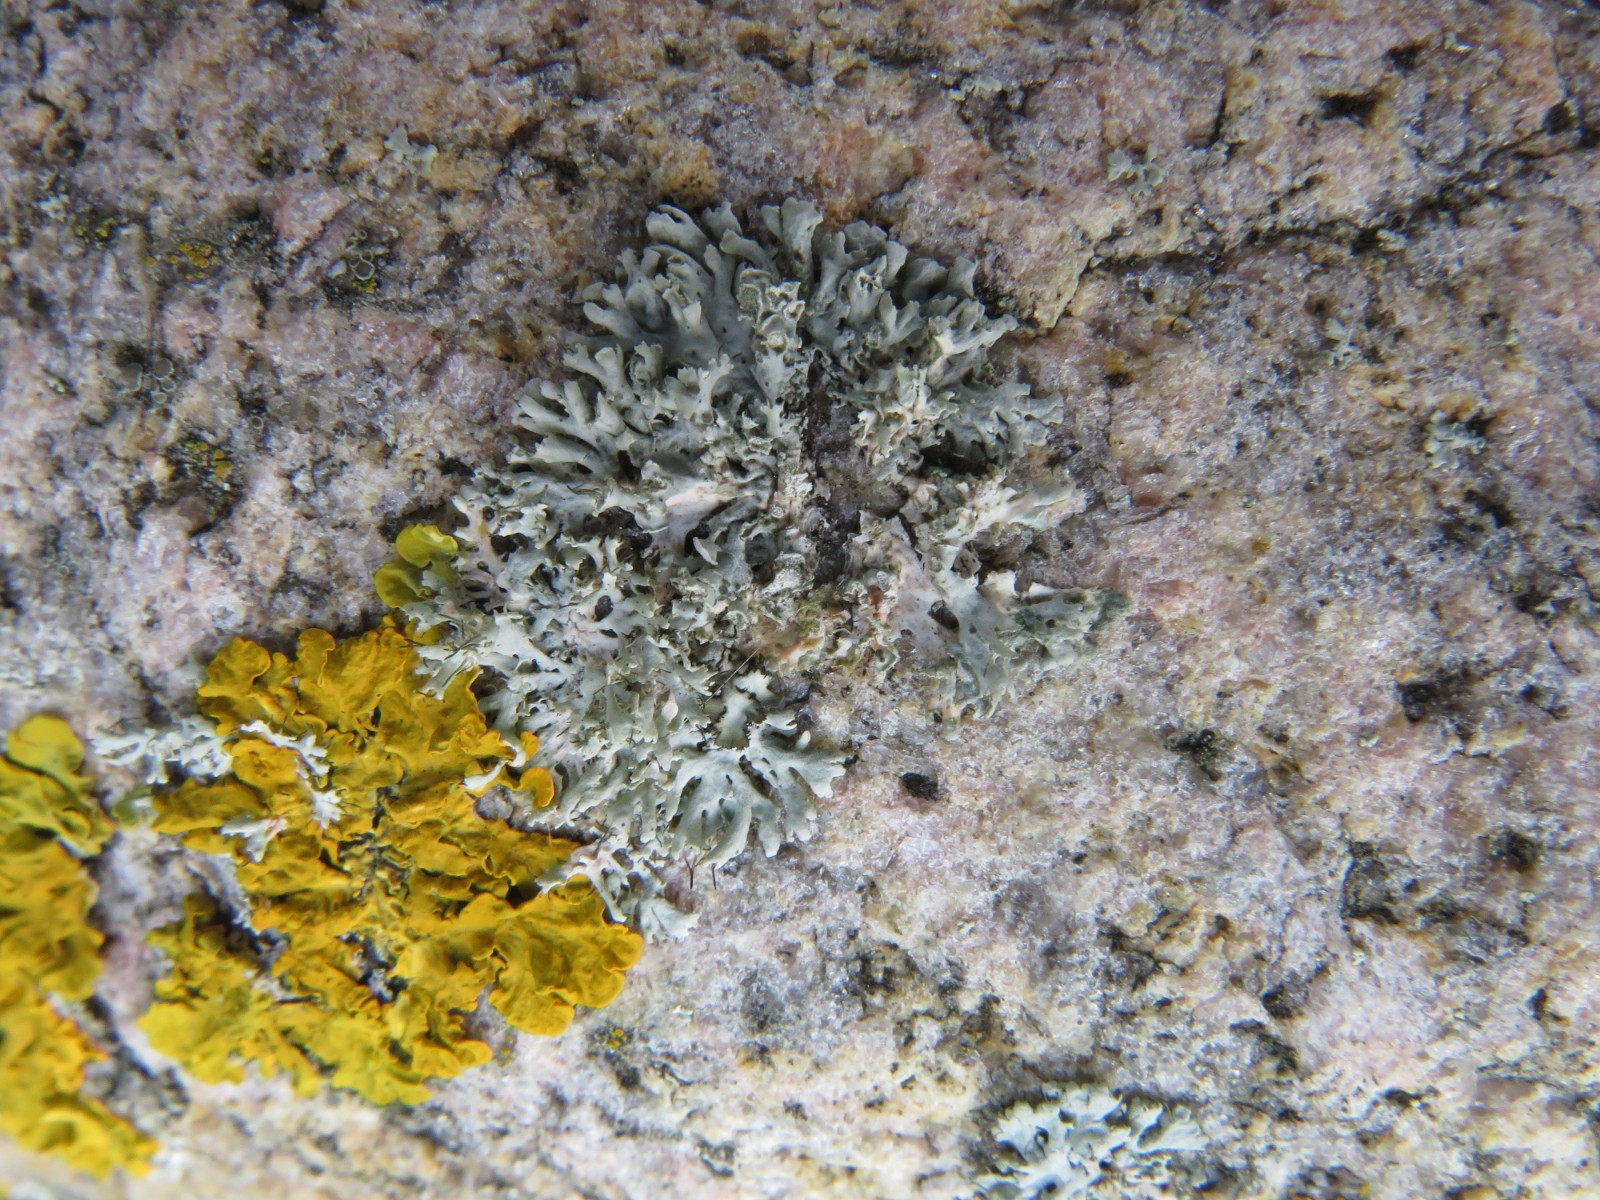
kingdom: Fungi
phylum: Ascomycota
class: Lecanoromycetes
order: Caliciales
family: Physciaceae
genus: Physcia
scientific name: Physcia tenella
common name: spæd rosetlav
